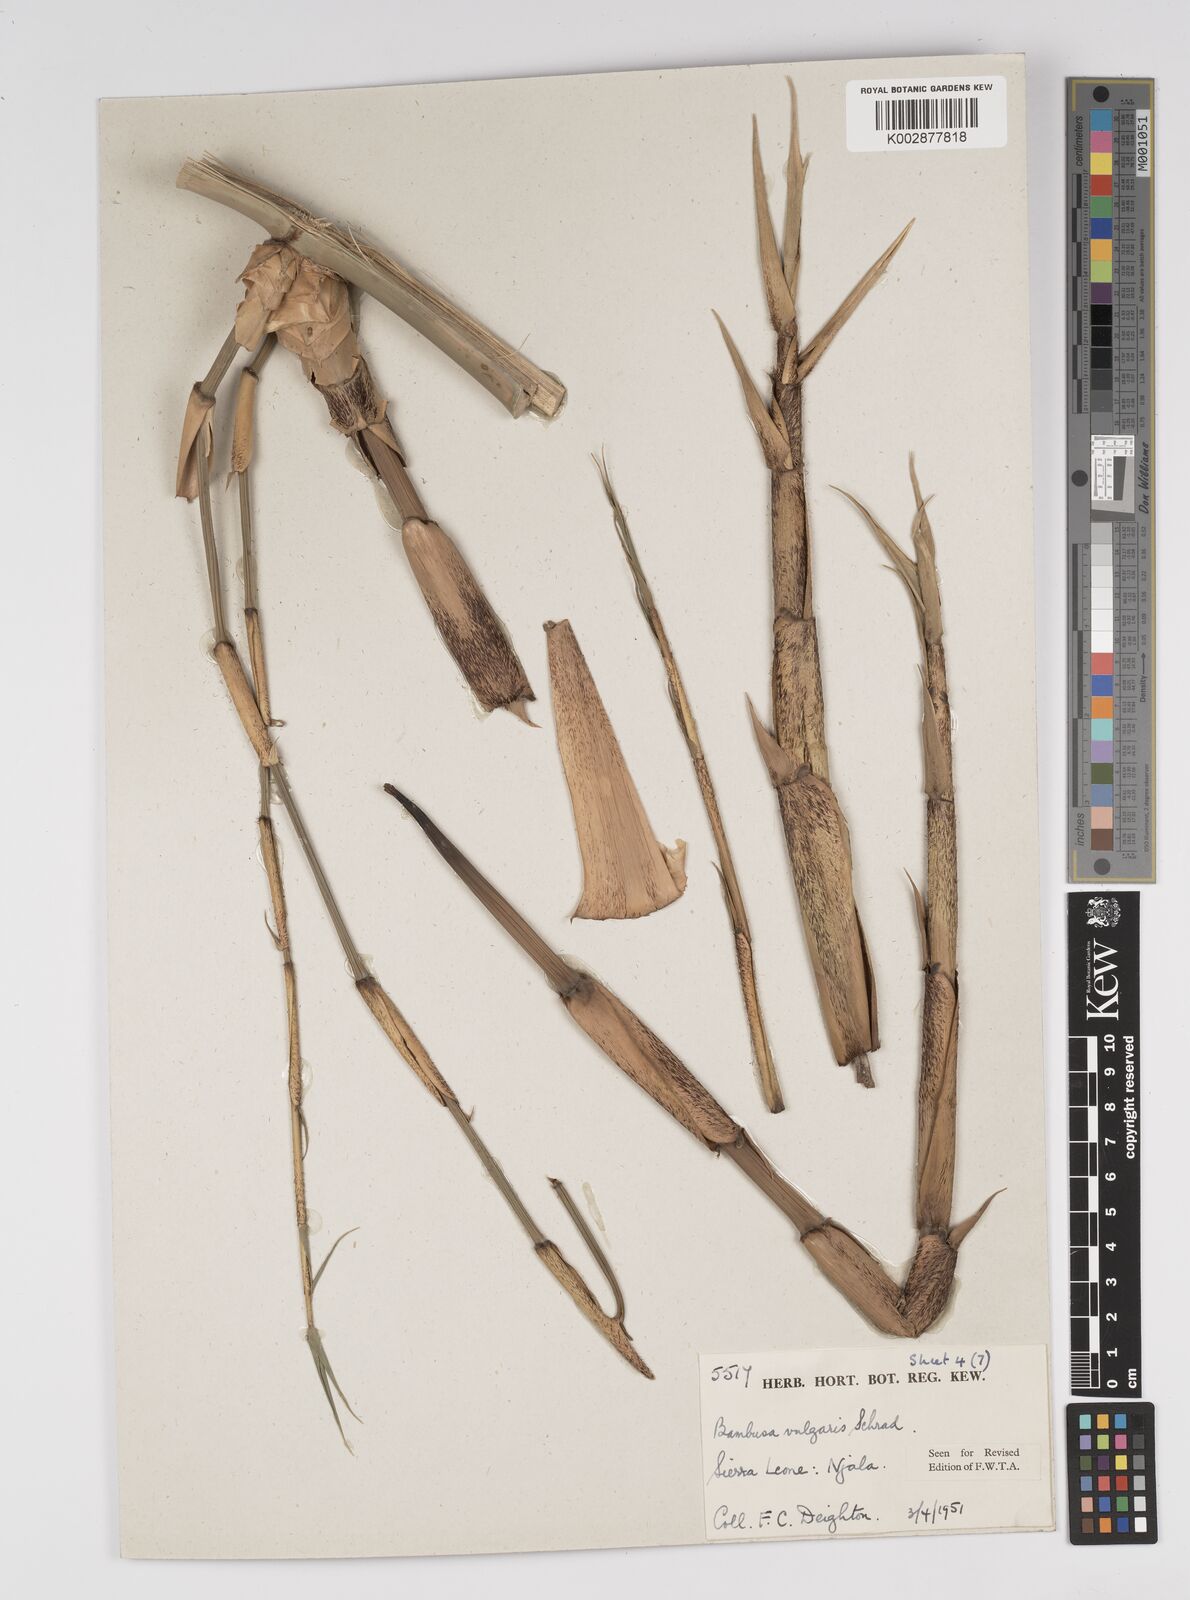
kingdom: Plantae
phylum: Tracheophyta
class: Liliopsida
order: Poales
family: Poaceae
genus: Bambusa
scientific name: Bambusa vulgaris
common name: Common bamboo
